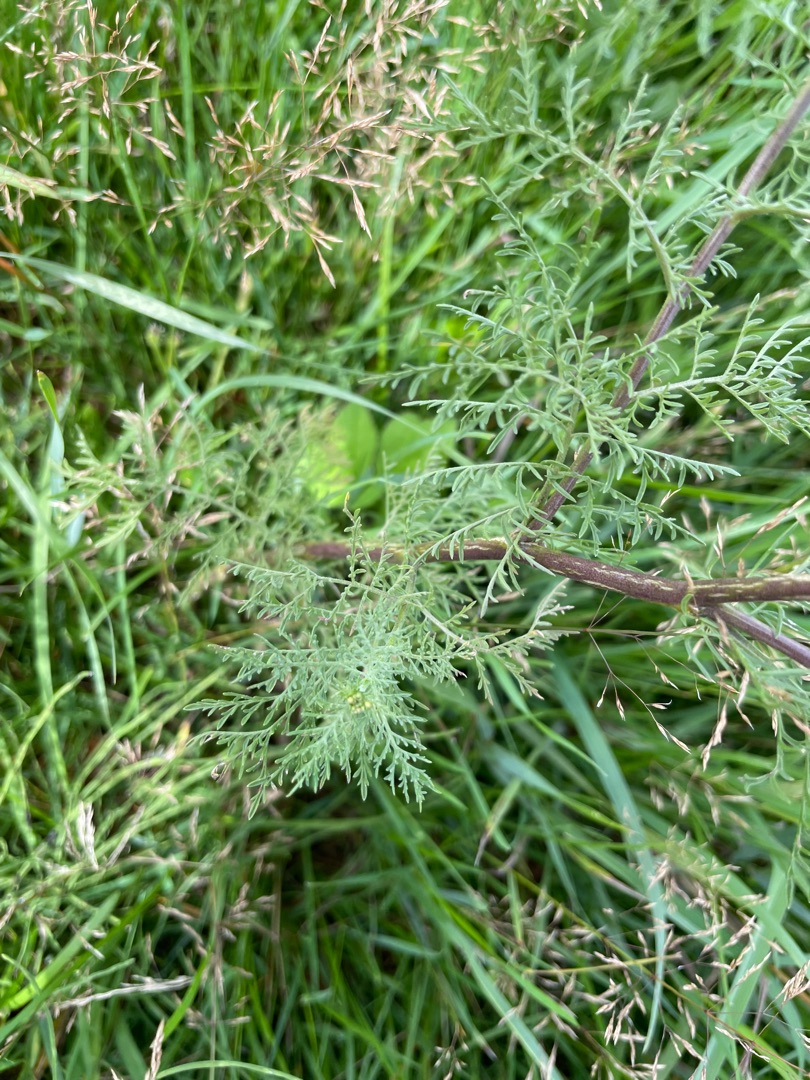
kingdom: Plantae
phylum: Tracheophyta
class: Magnoliopsida
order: Brassicales
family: Brassicaceae
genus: Descurainia
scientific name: Descurainia sophia
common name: Finbladet vejsennep
